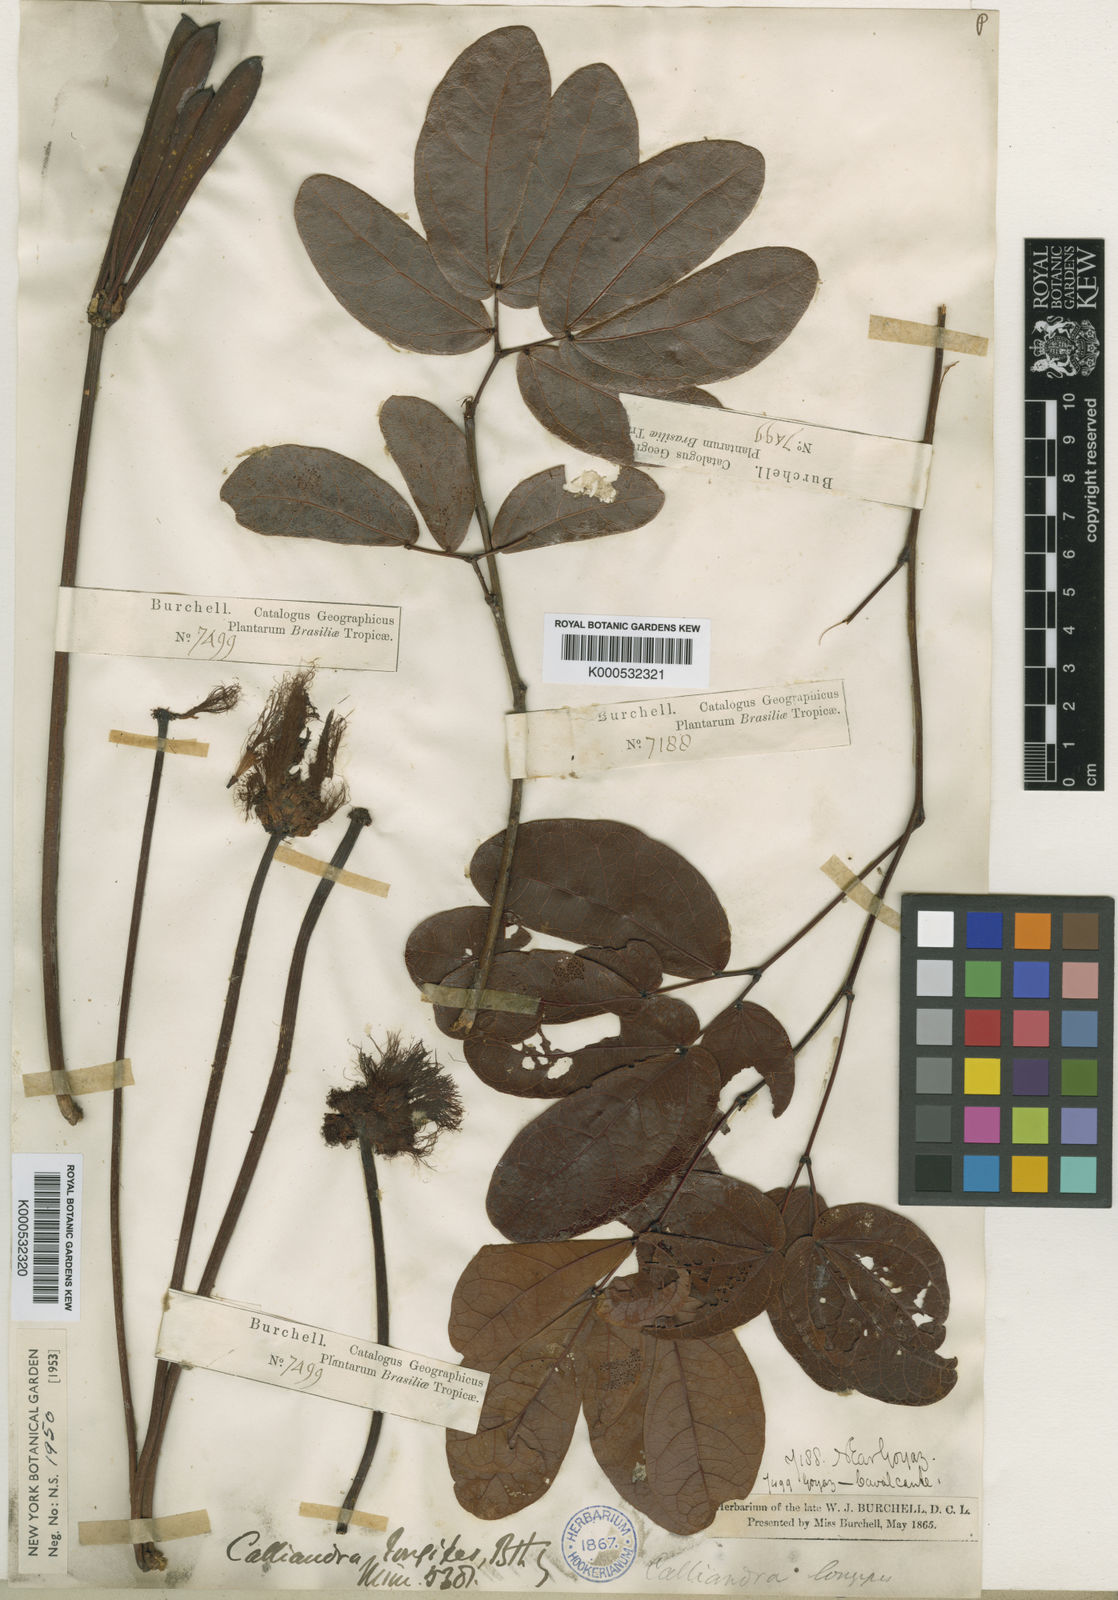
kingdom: Plantae
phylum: Tracheophyta
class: Magnoliopsida
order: Fabales
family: Fabaceae
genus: Calliandra
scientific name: Calliandra longipes
